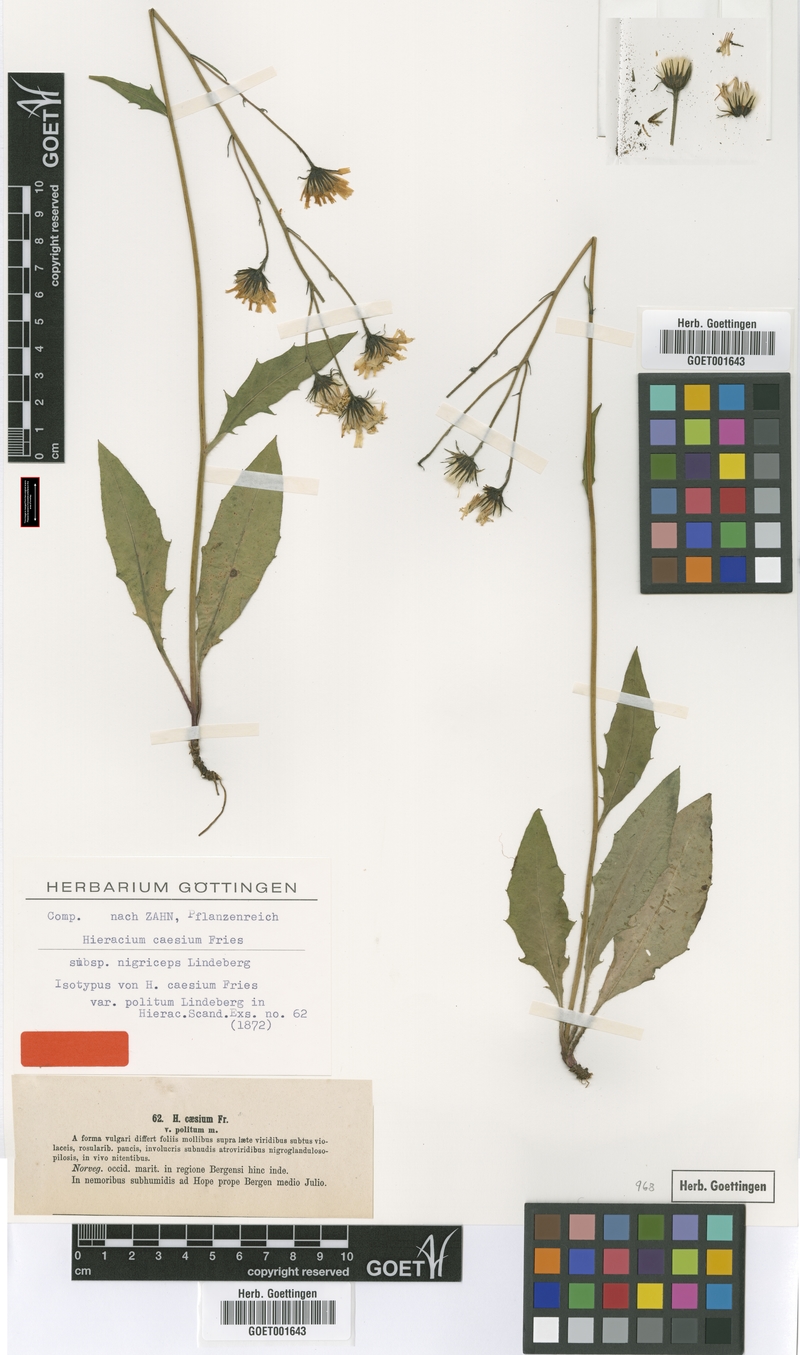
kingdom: Plantae
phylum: Tracheophyta
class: Magnoliopsida
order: Asterales
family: Asteraceae
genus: Hieracium
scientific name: Hieracium nigriceps
